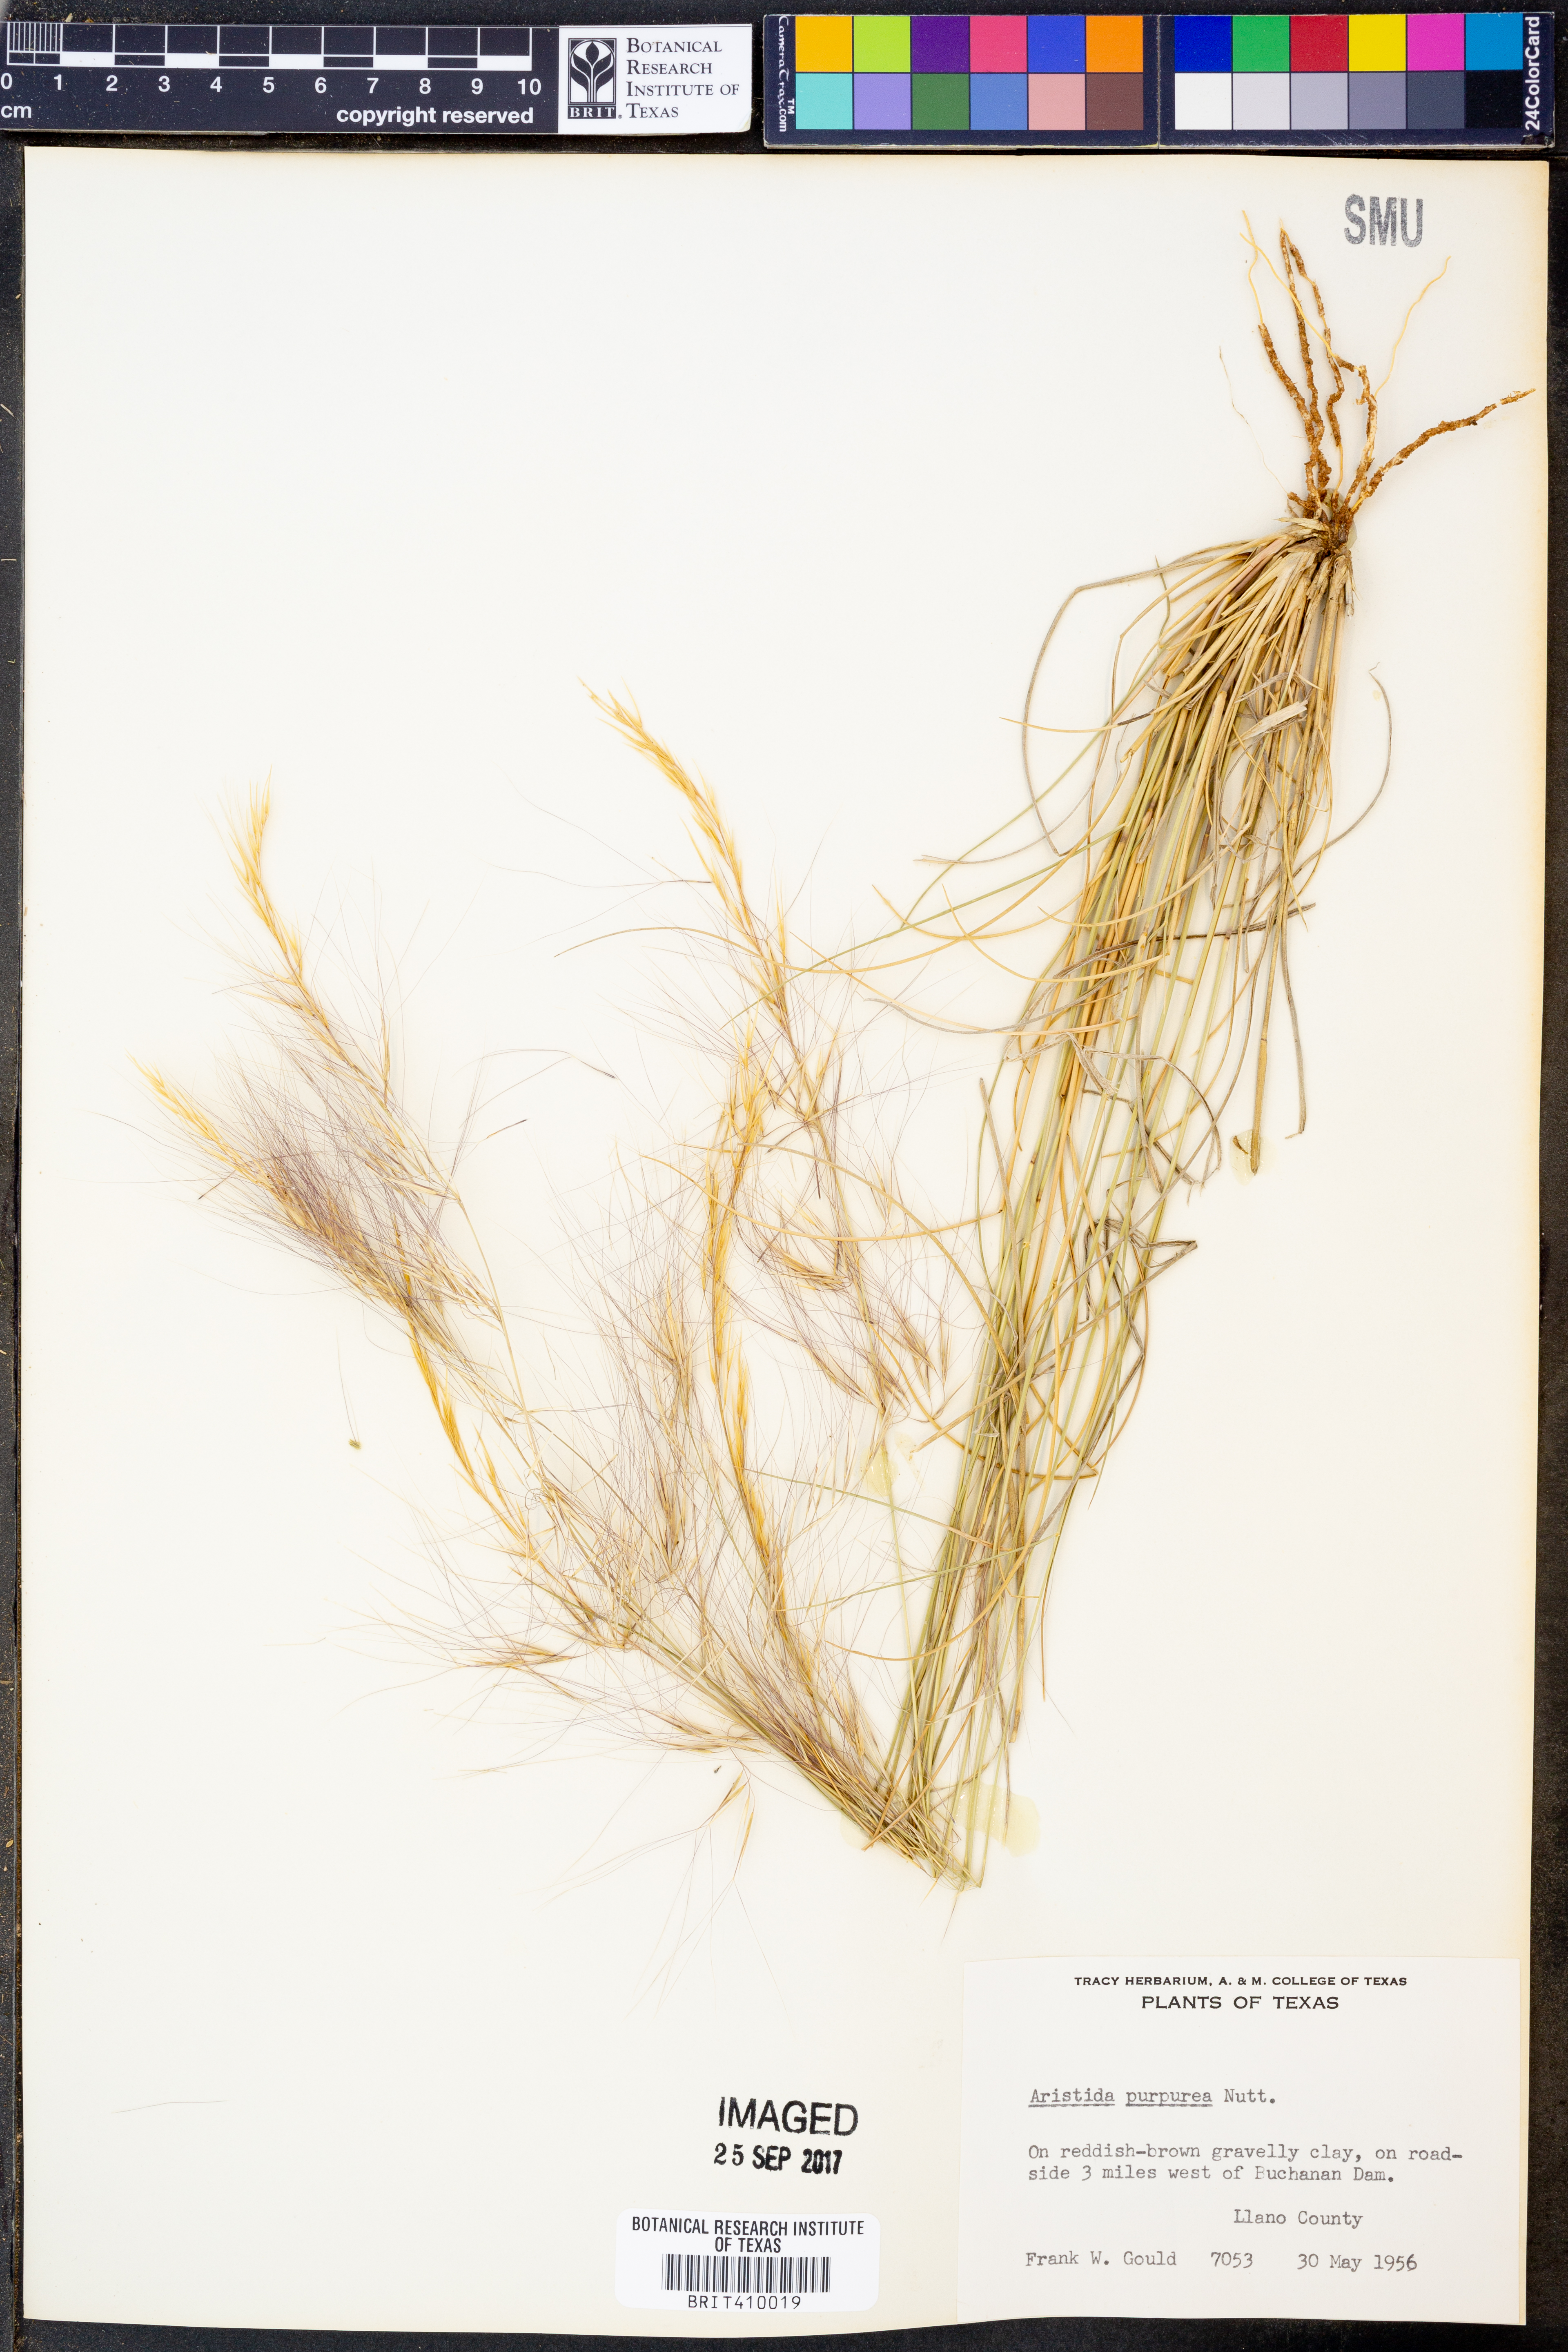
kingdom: Plantae
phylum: Tracheophyta
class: Liliopsida
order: Poales
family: Poaceae
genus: Aristida
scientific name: Aristida purpurea
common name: Purple threeawn
